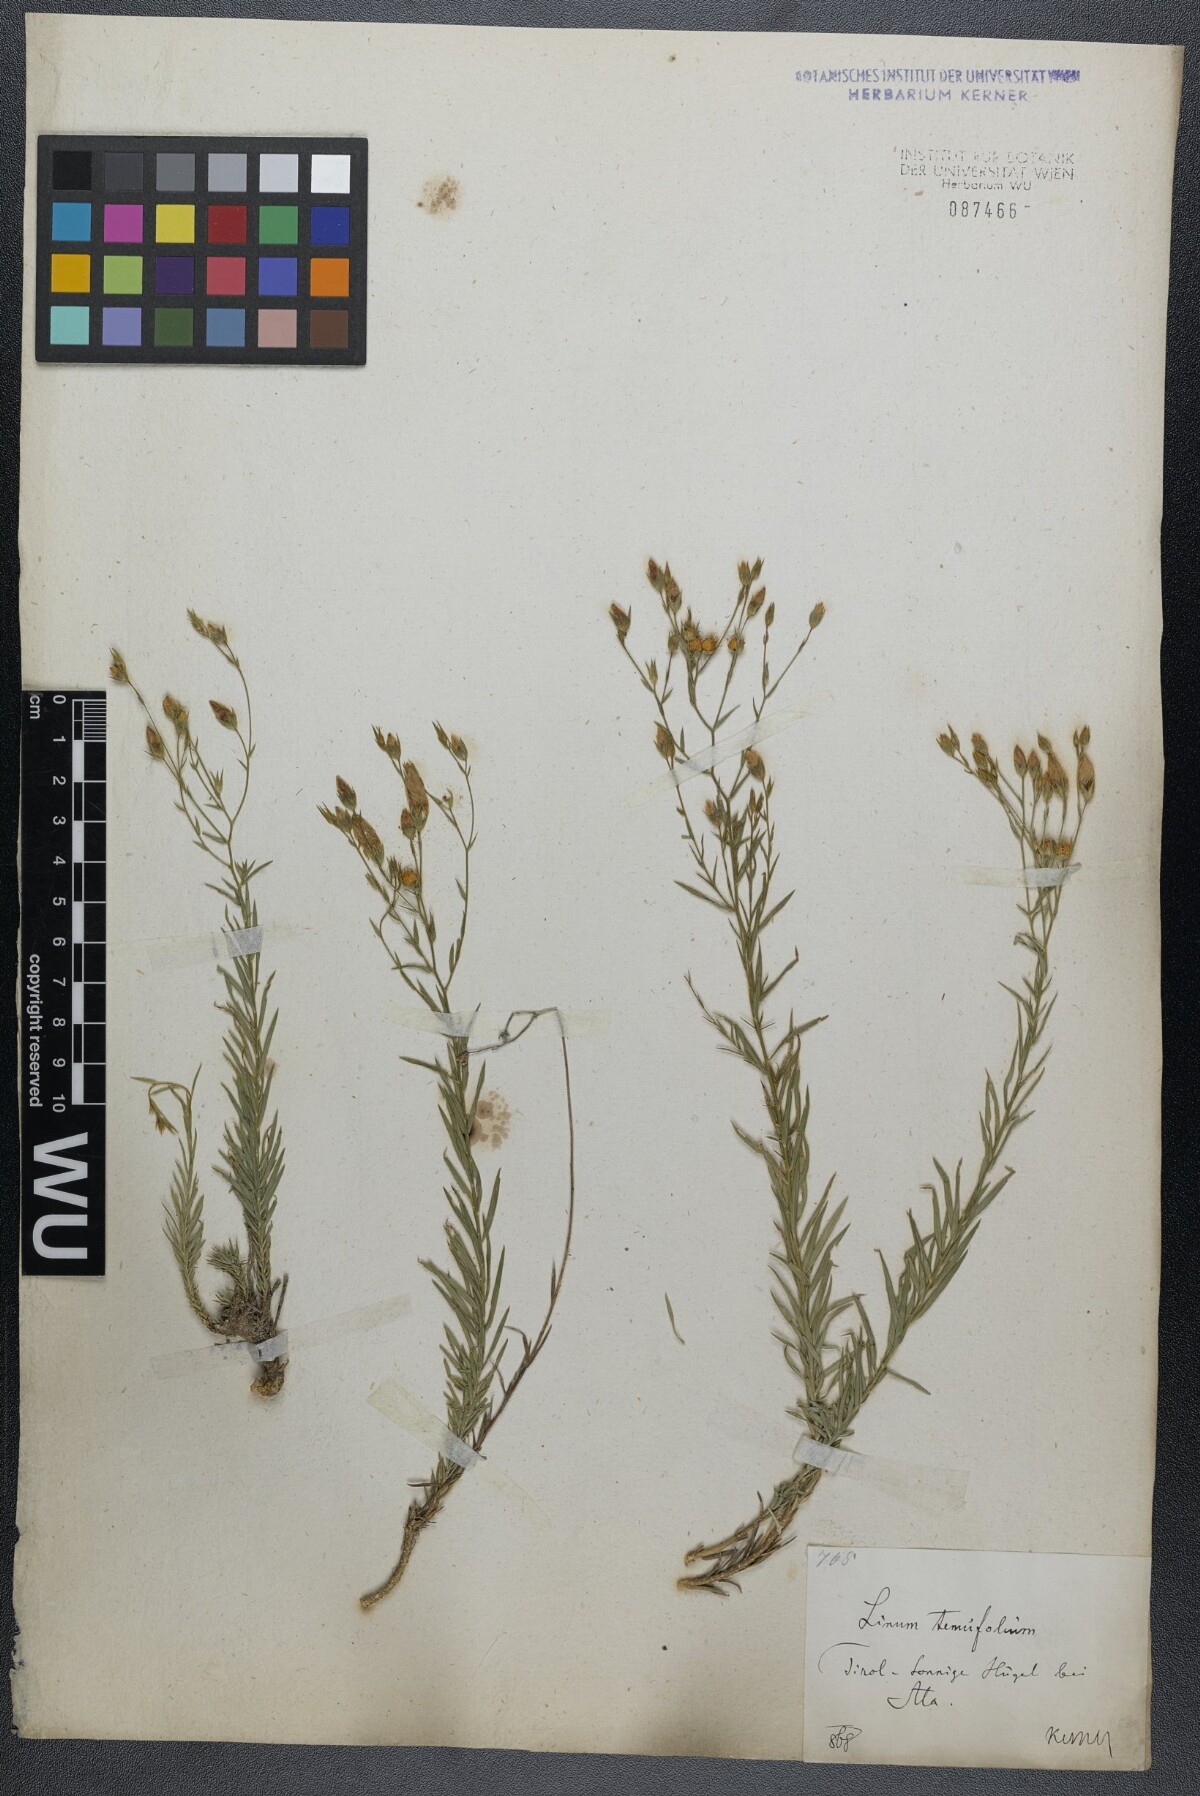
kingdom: Plantae
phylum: Tracheophyta
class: Magnoliopsida
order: Malpighiales
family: Linaceae
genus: Linum
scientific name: Linum tenuifolium
